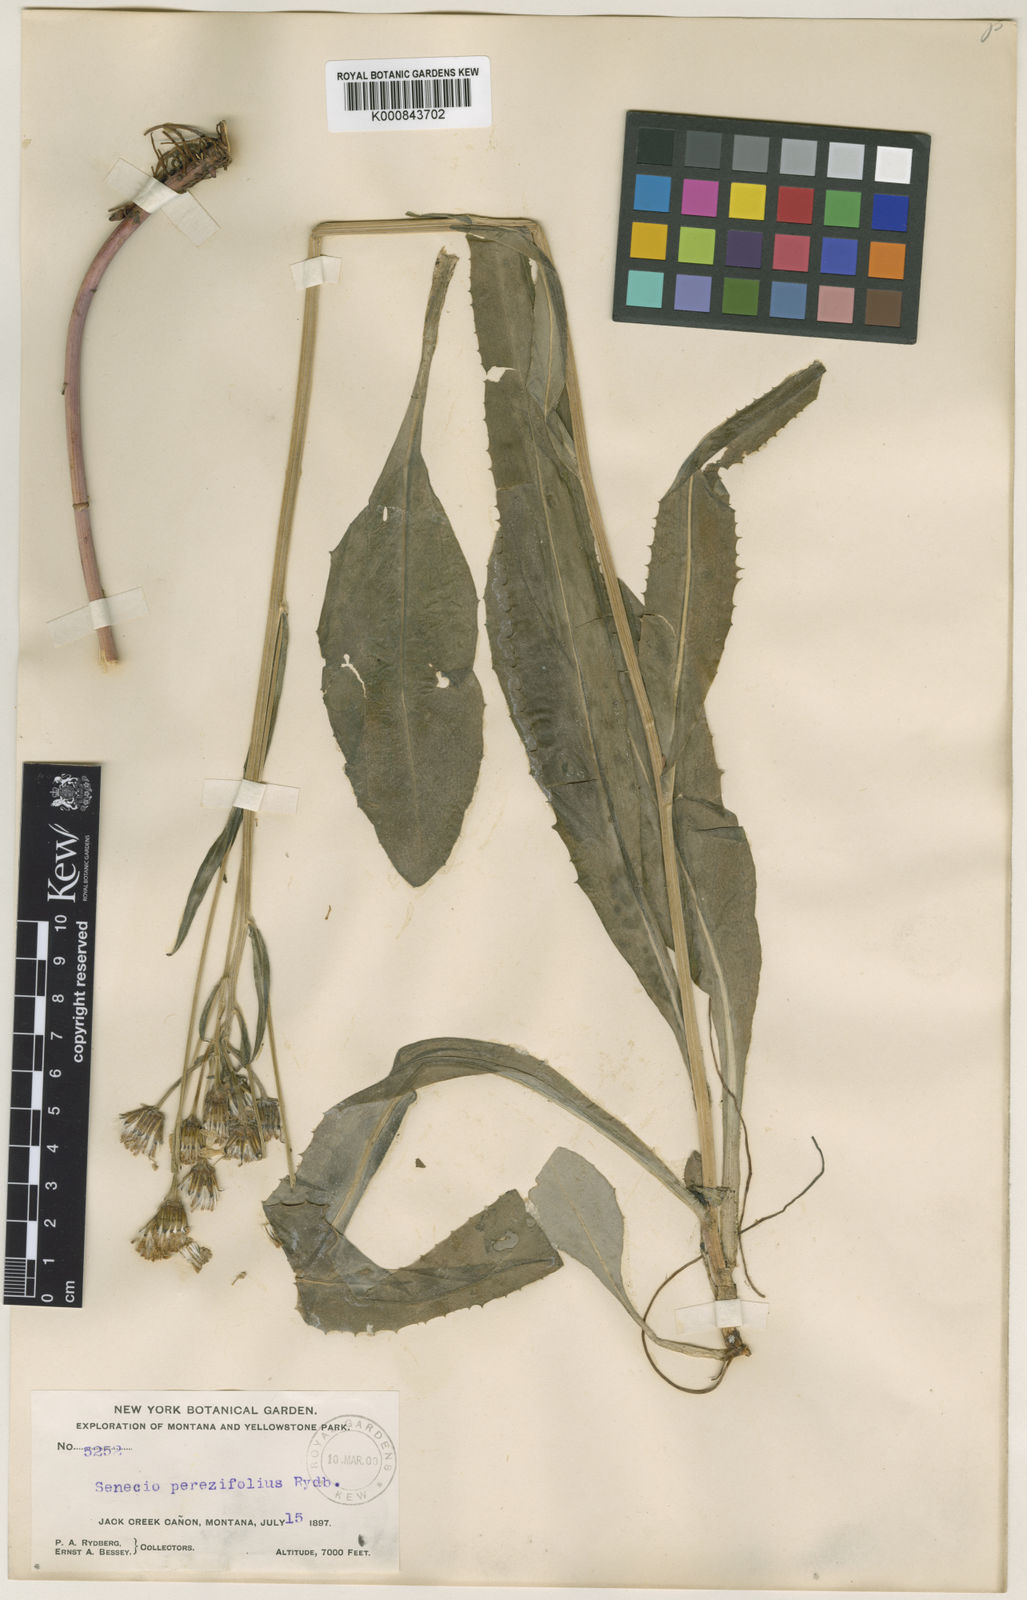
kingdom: Plantae
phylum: Tracheophyta
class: Magnoliopsida
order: Asterales
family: Asteraceae
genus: Senecio
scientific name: Senecio hydrophiloides
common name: Stout meadow groundsel
